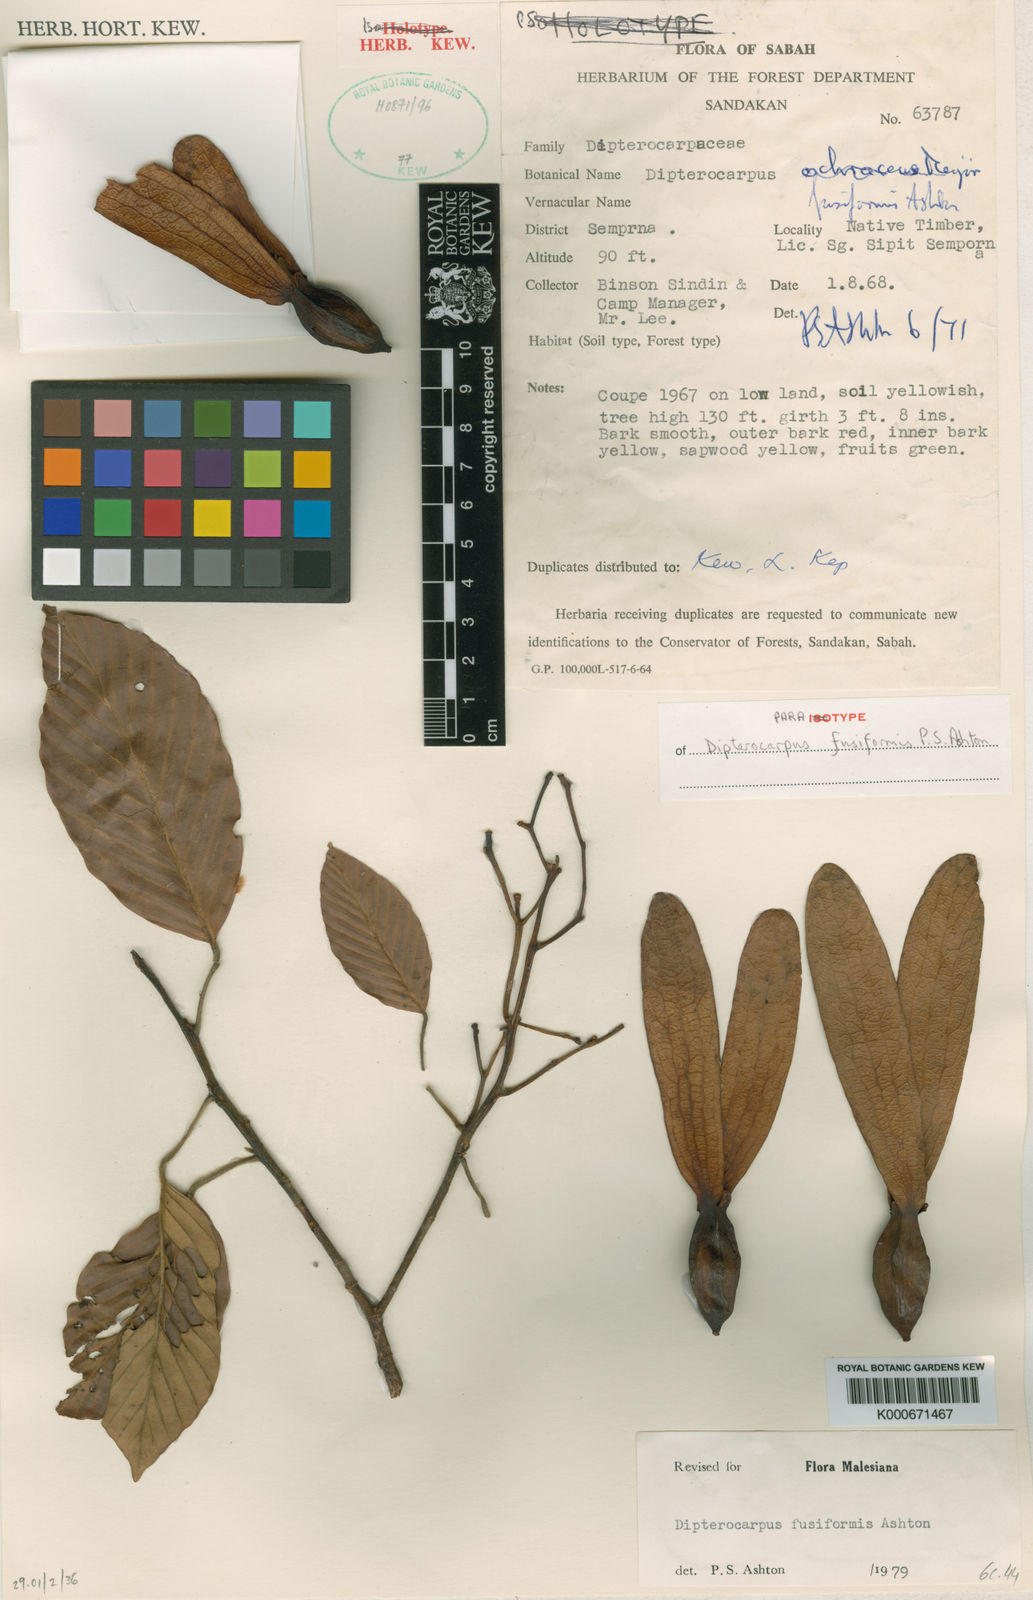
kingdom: Plantae
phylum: Tracheophyta
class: Magnoliopsida
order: Malvales
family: Dipterocarpaceae
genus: Dipterocarpus
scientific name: Dipterocarpus fusiformis
